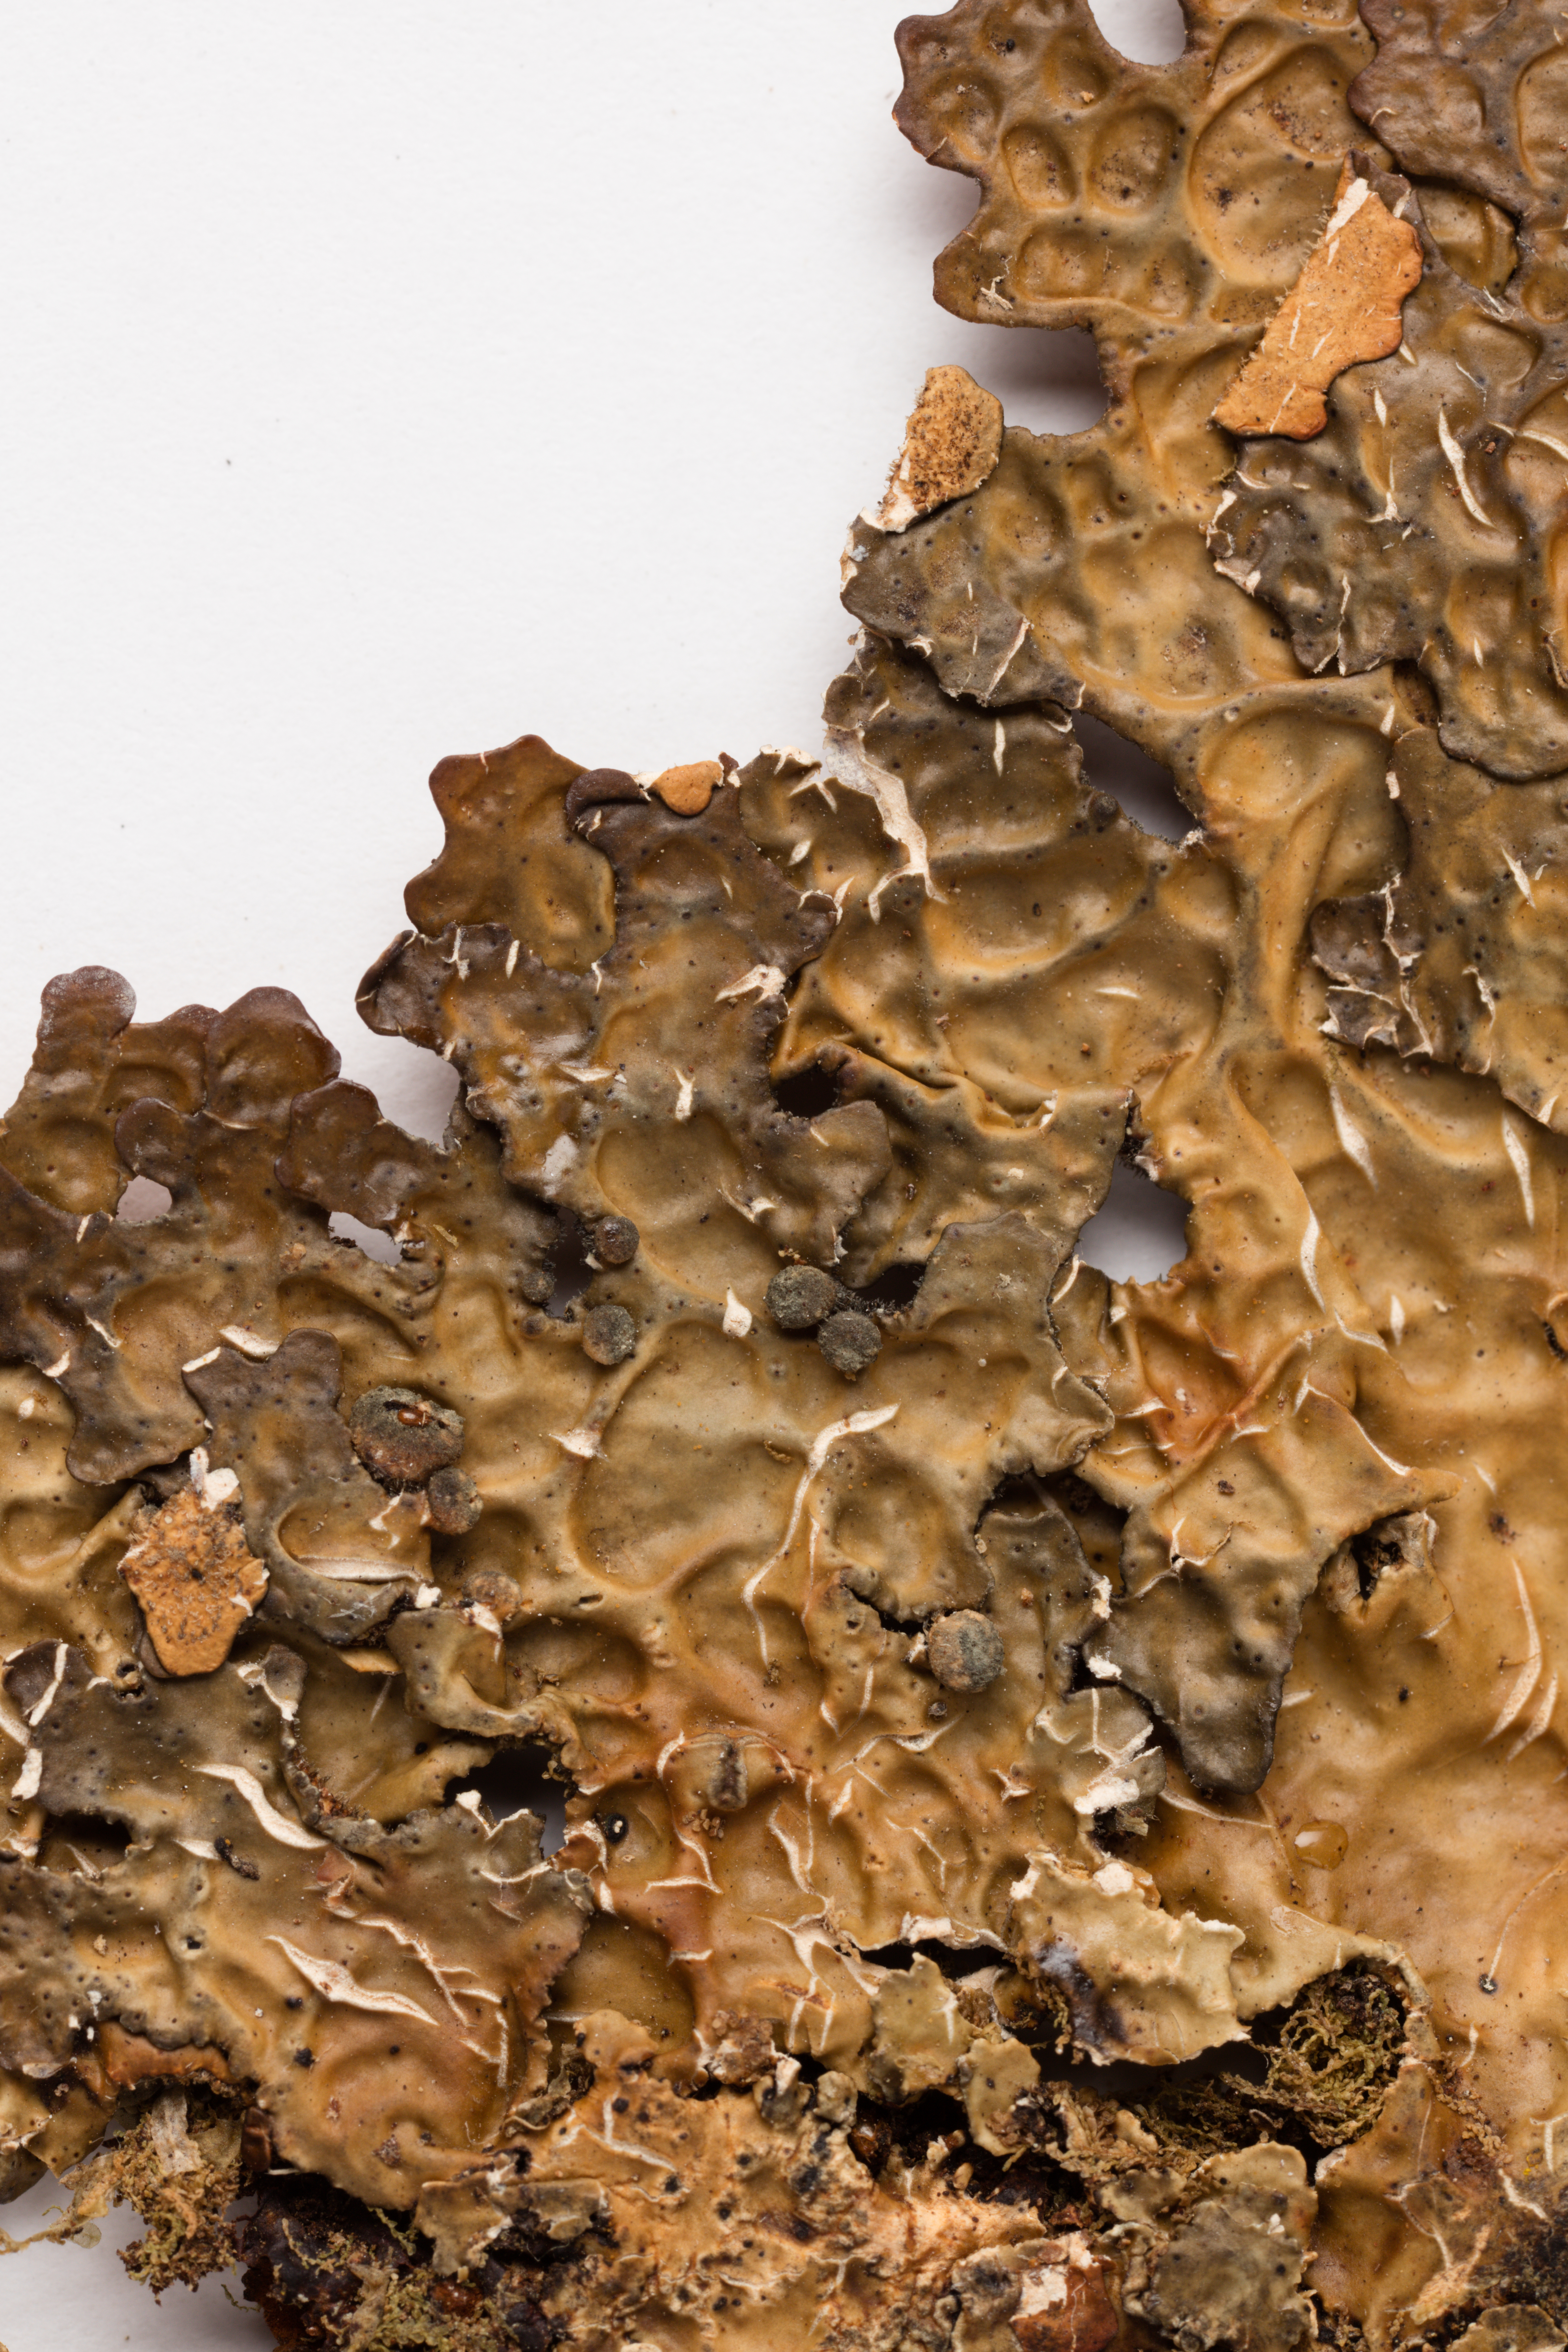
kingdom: Fungi
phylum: Ascomycota
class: Lecanoromycetes
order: Peltigerales
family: Lobariaceae
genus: Pseudocyphellaria
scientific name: Pseudocyphellaria carpoloma
